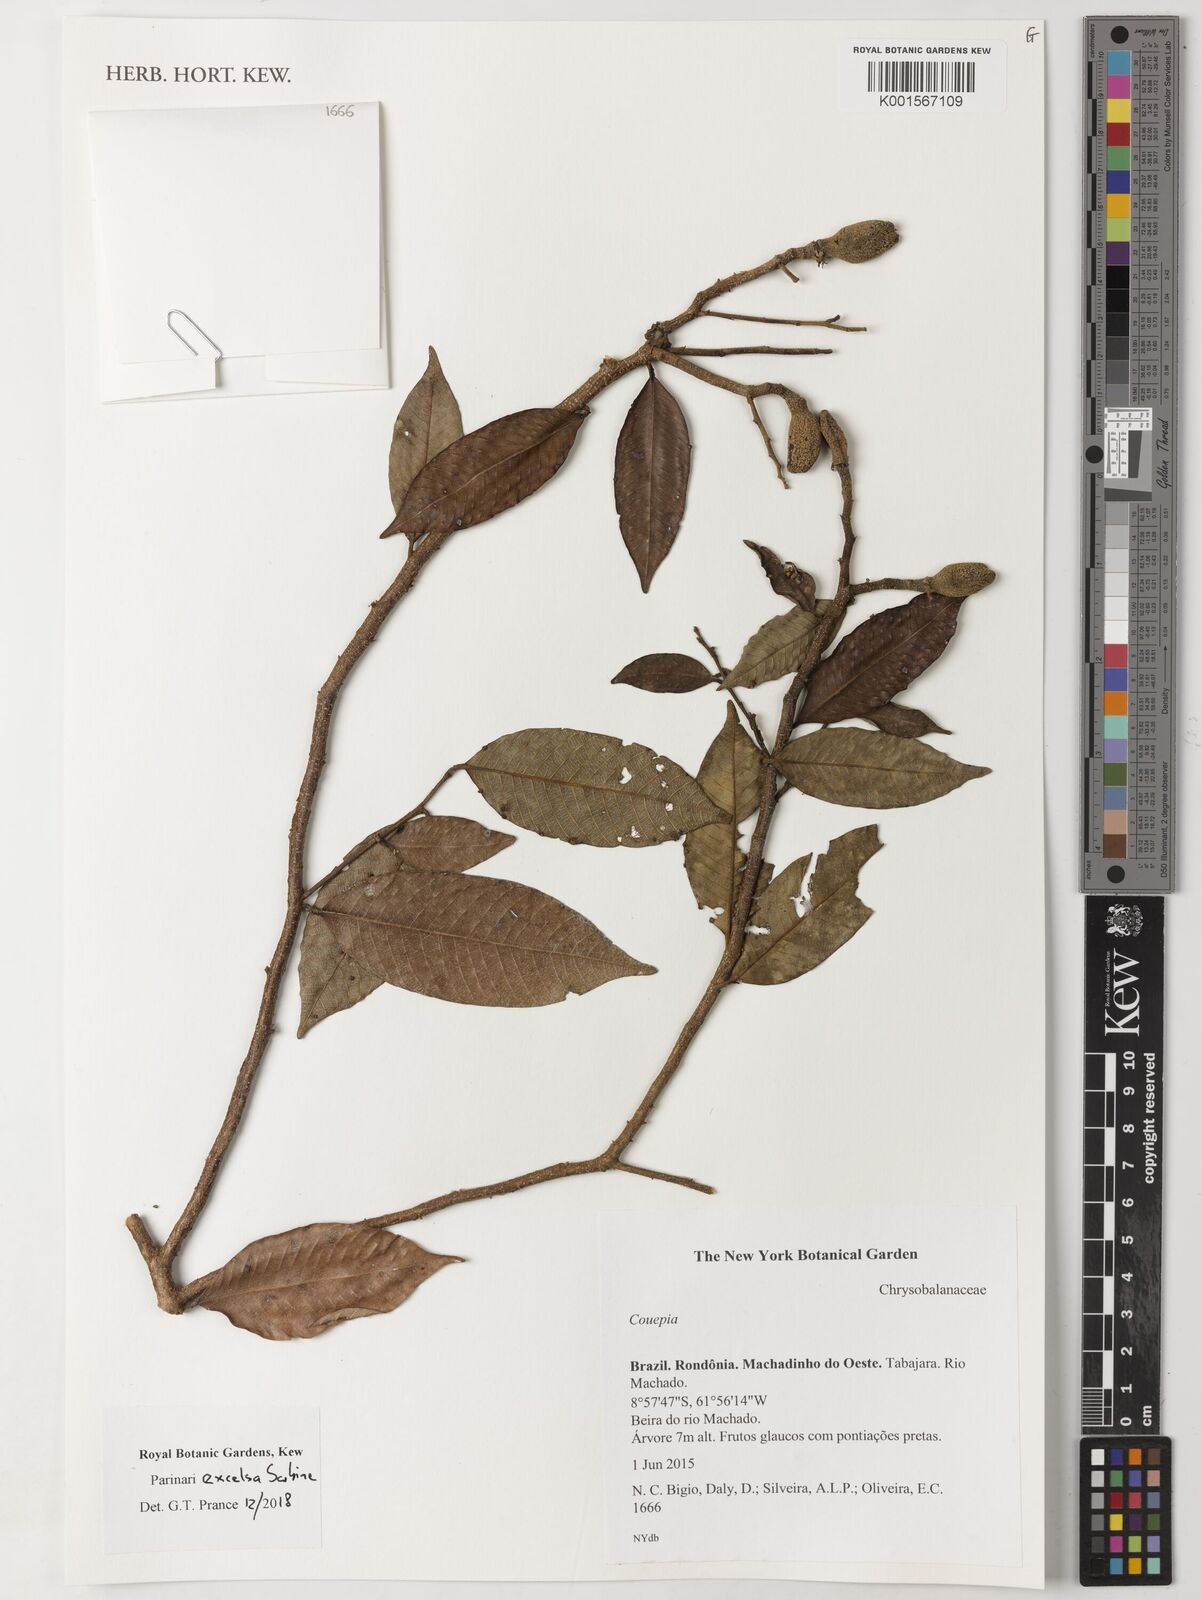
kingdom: Plantae
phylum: Tracheophyta
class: Magnoliopsida
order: Malpighiales
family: Chrysobalanaceae
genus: Parinari
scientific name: Parinari excelsa
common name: Guinea-plum
